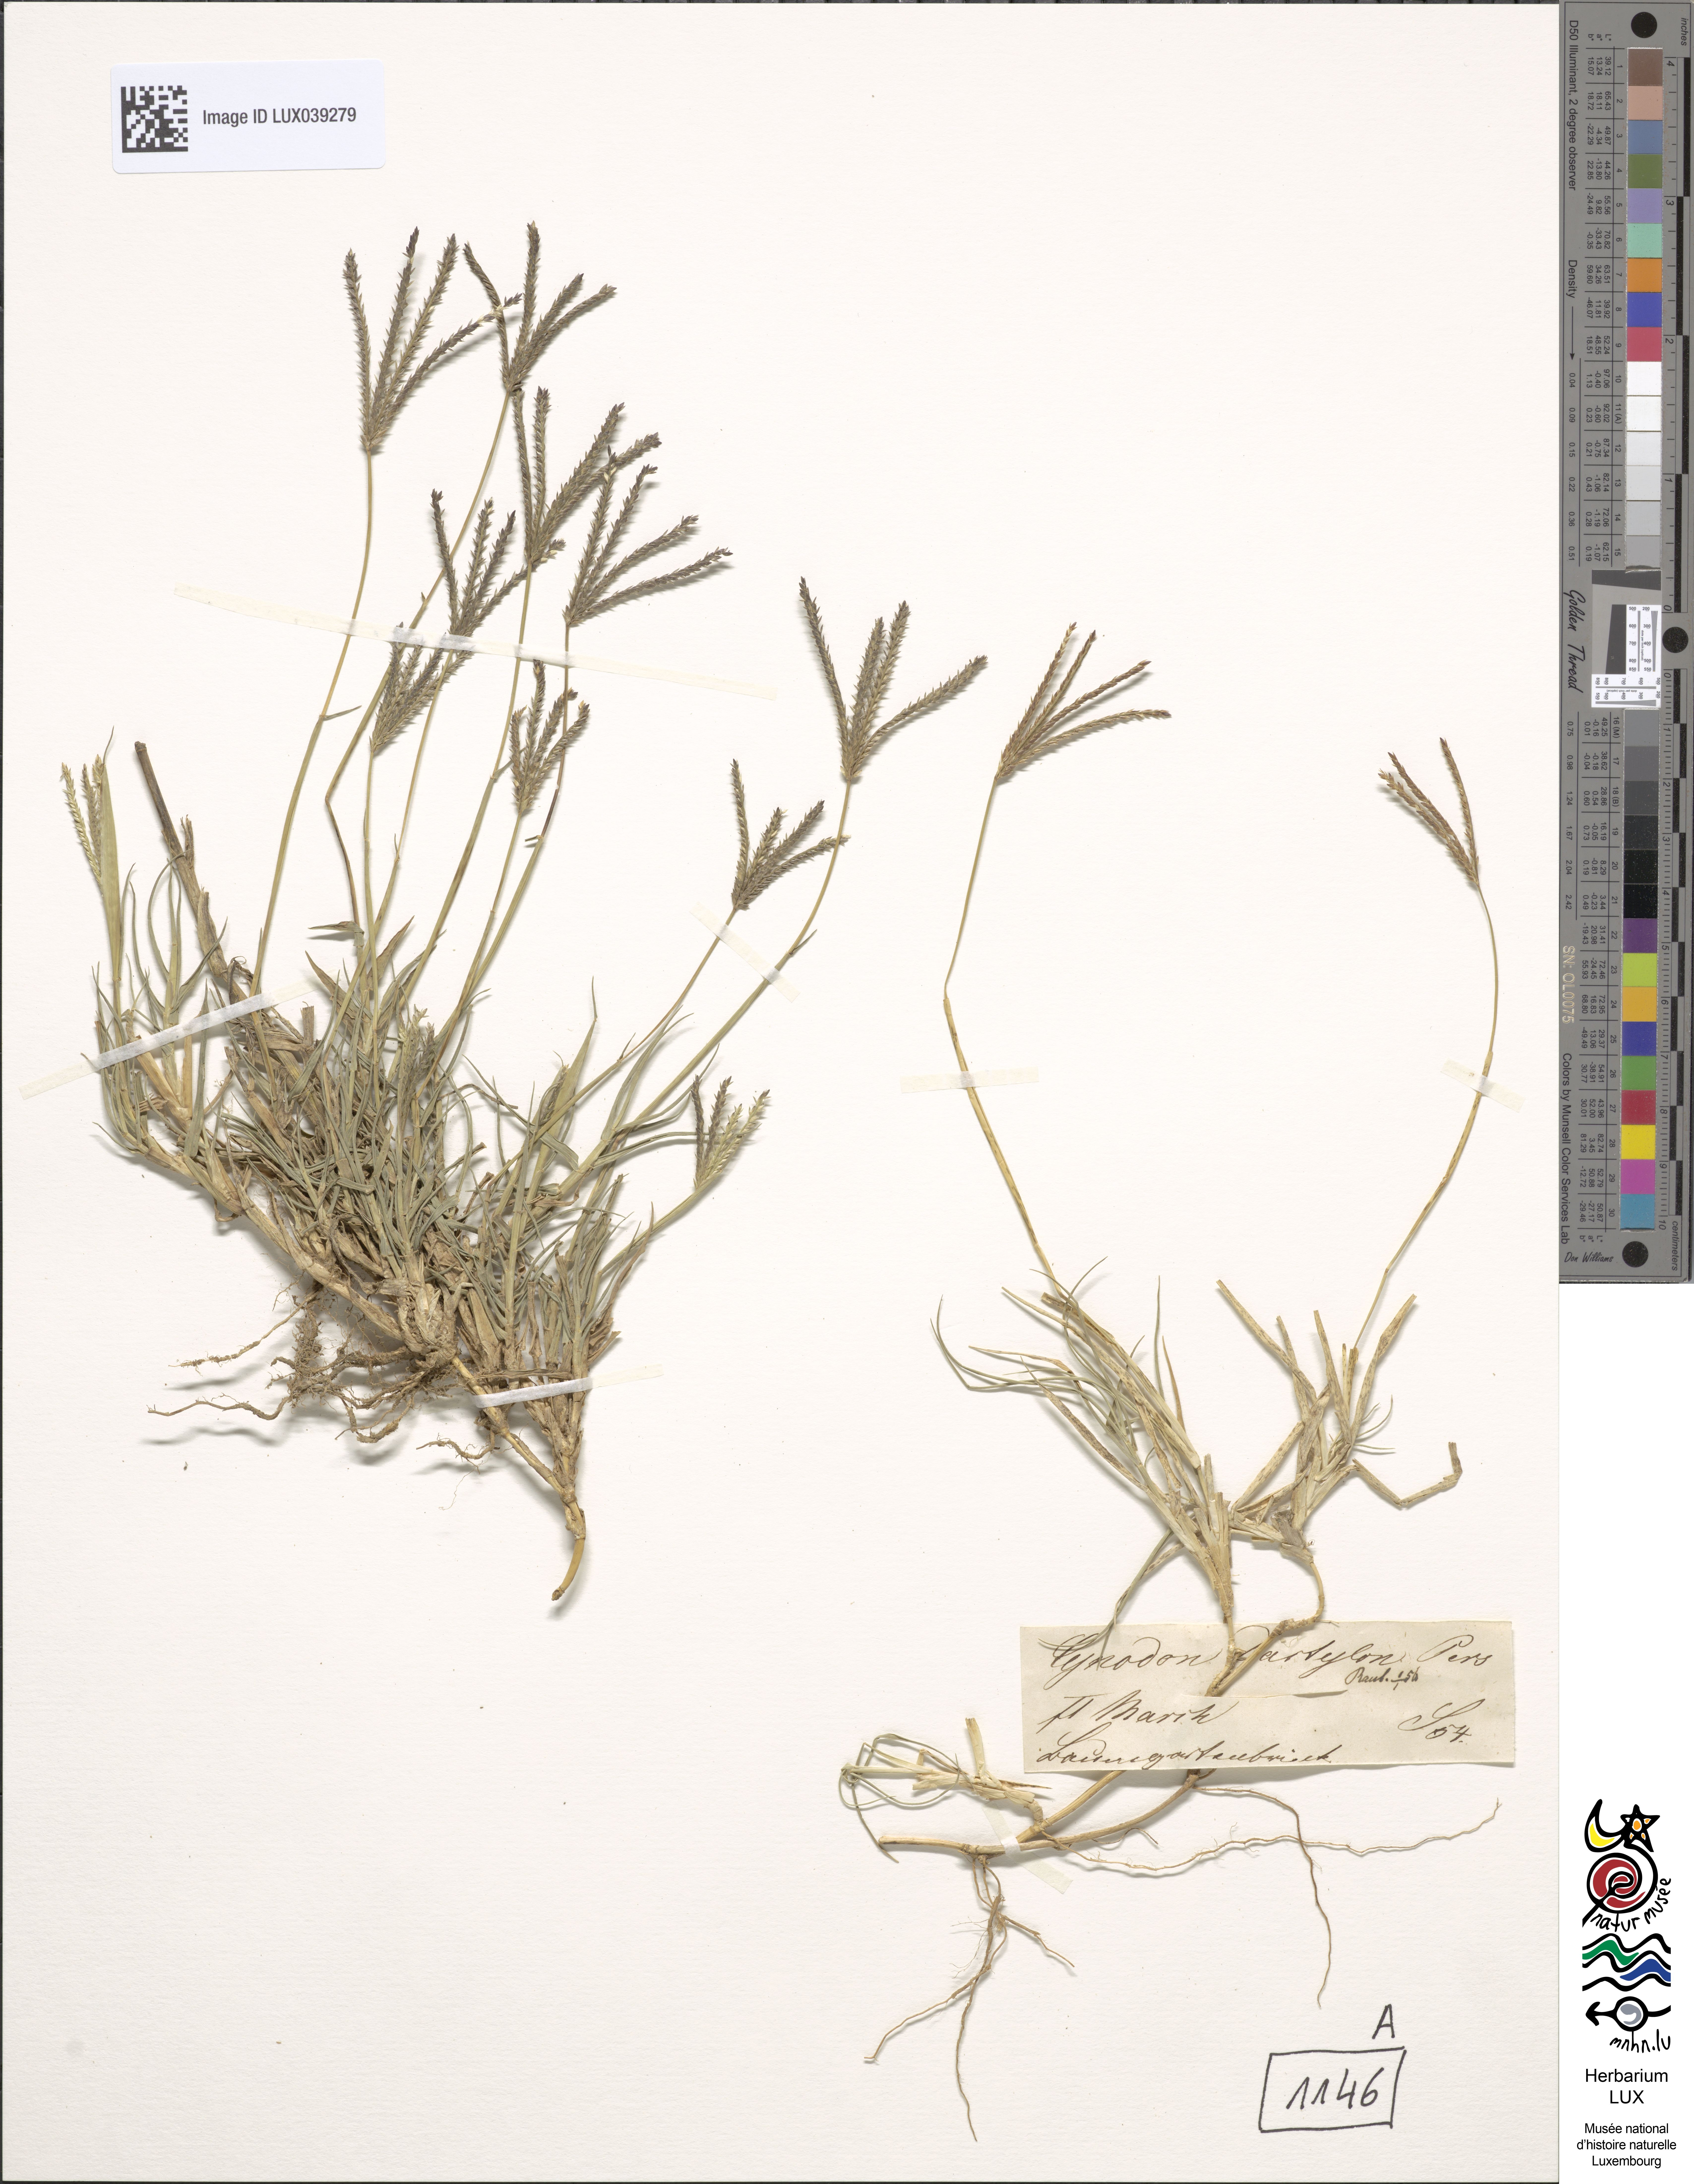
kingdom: Plantae
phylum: Tracheophyta
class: Liliopsida
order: Poales
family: Poaceae
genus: Cynodon
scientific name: Cynodon dactylon
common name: Bermuda grass
